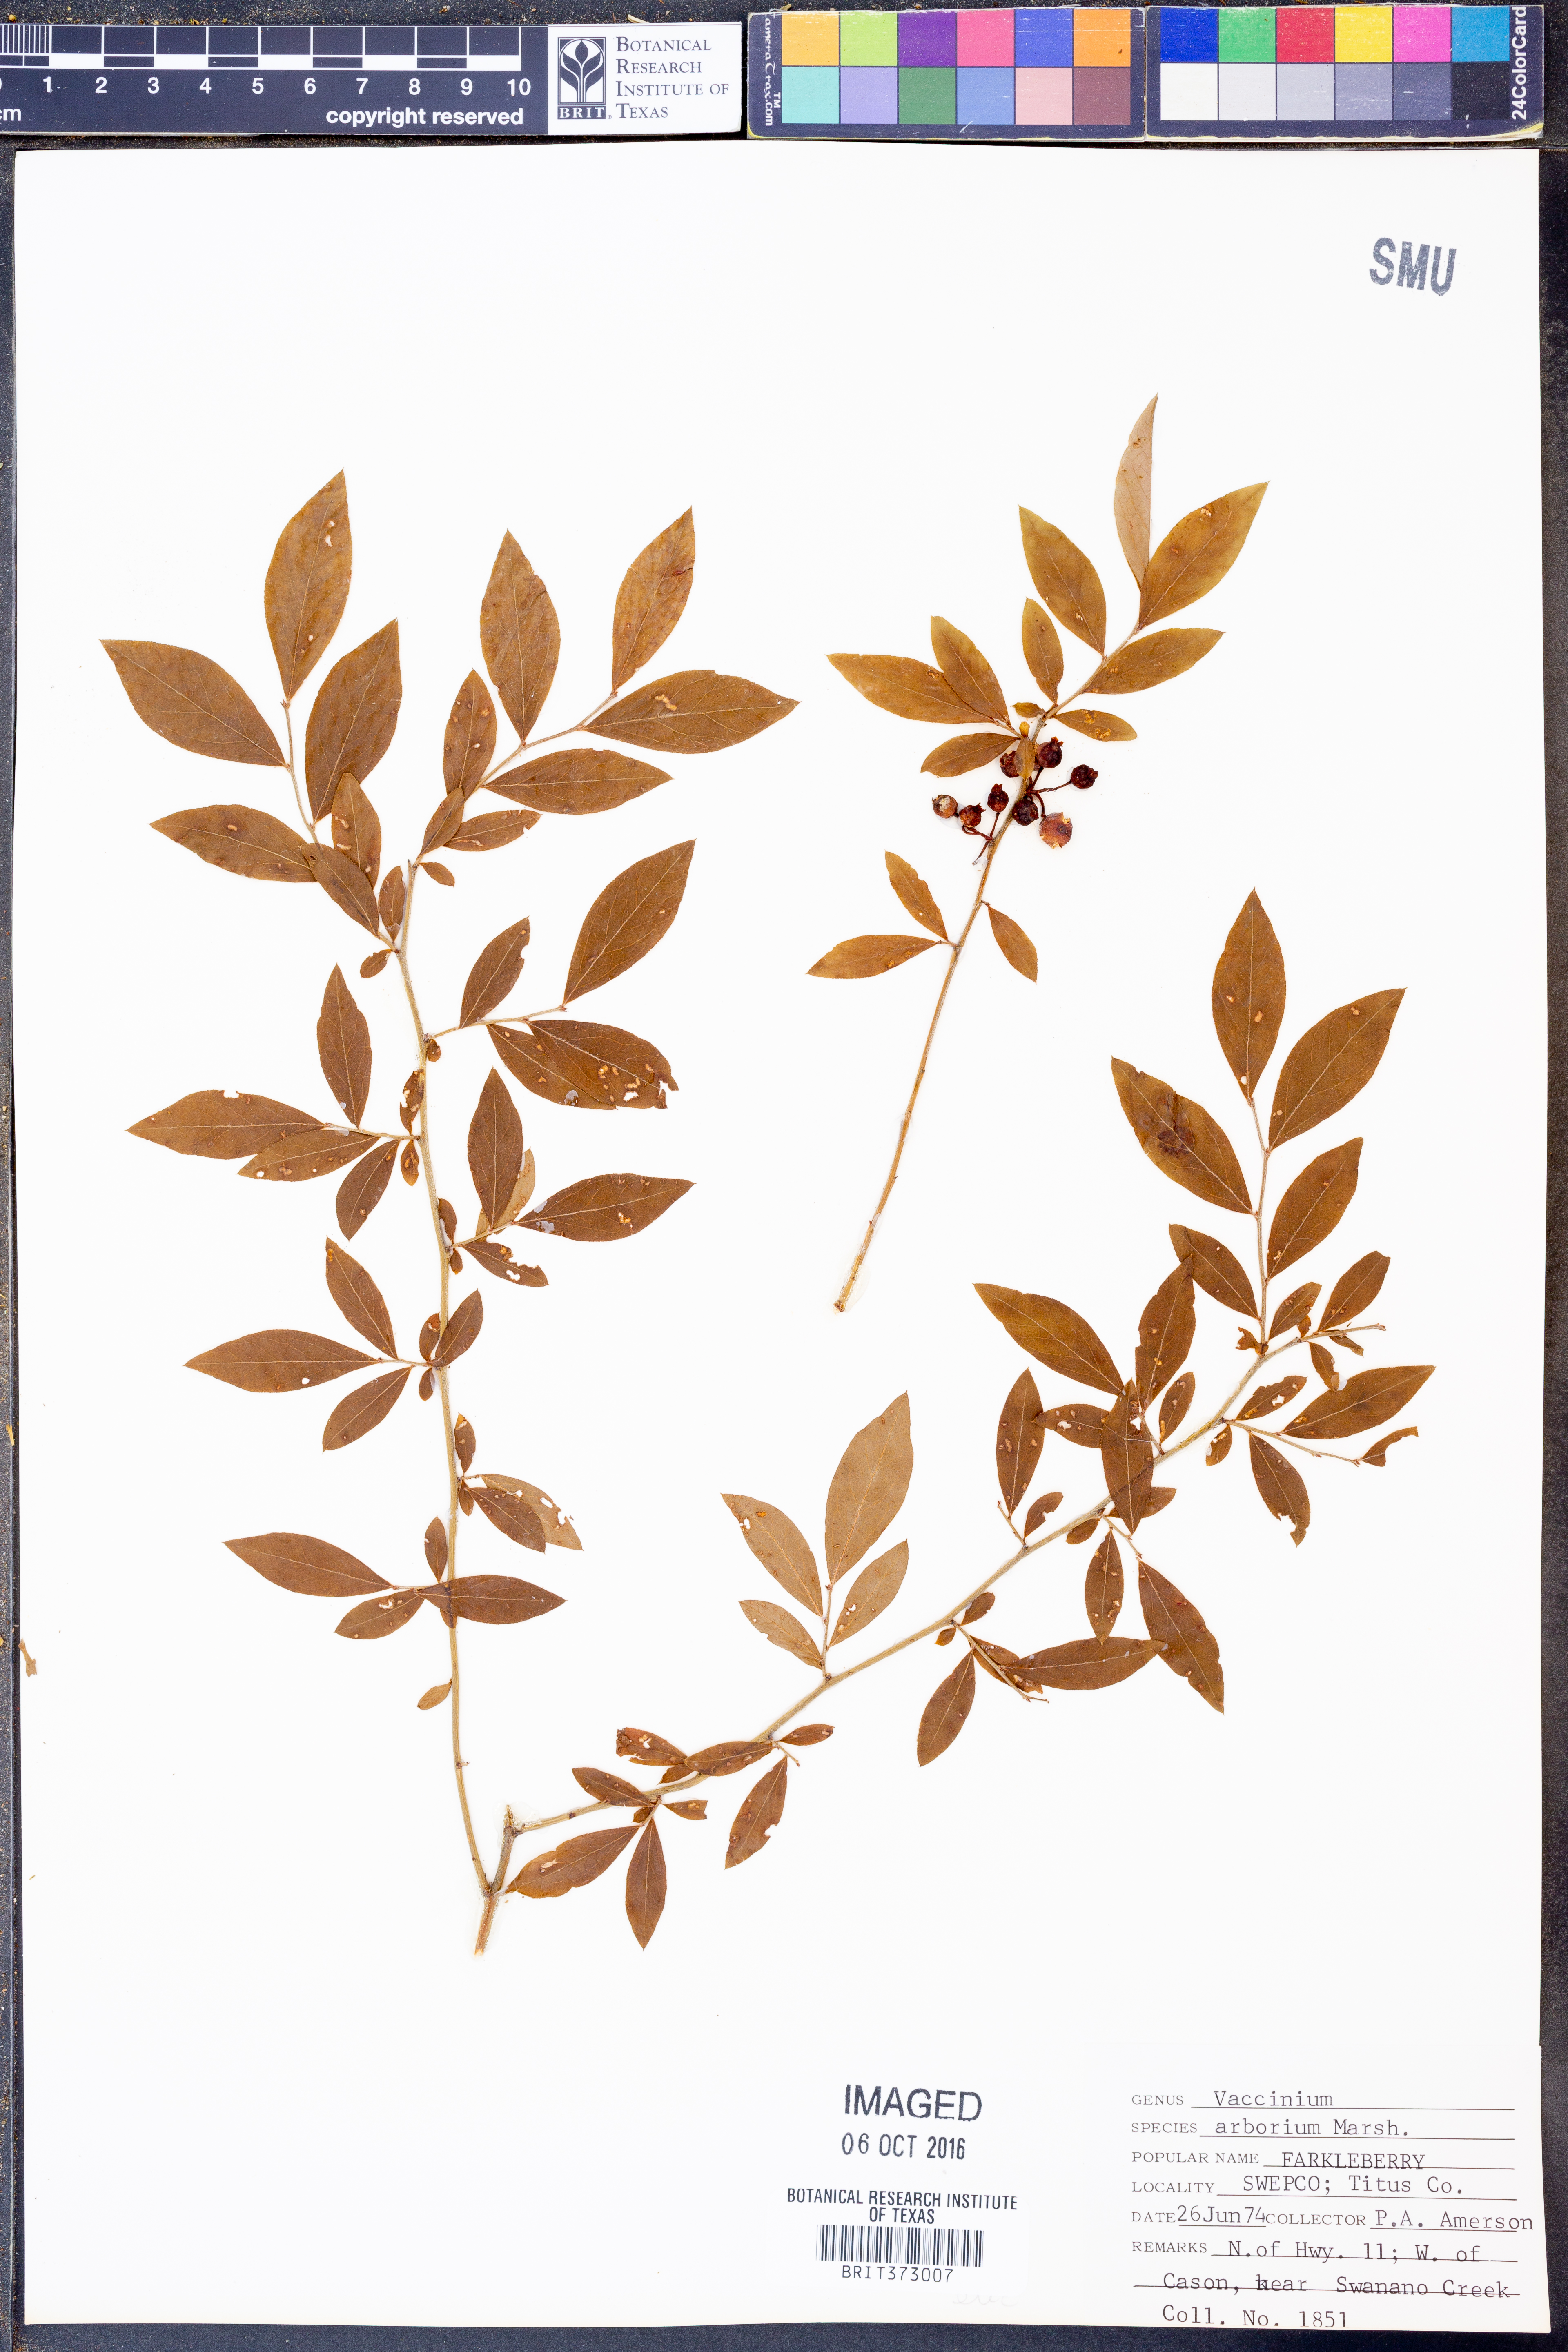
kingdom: Plantae
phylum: Tracheophyta
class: Magnoliopsida
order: Ericales
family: Ericaceae
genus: Vaccinium
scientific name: Vaccinium arboreum
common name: Farkleberry
